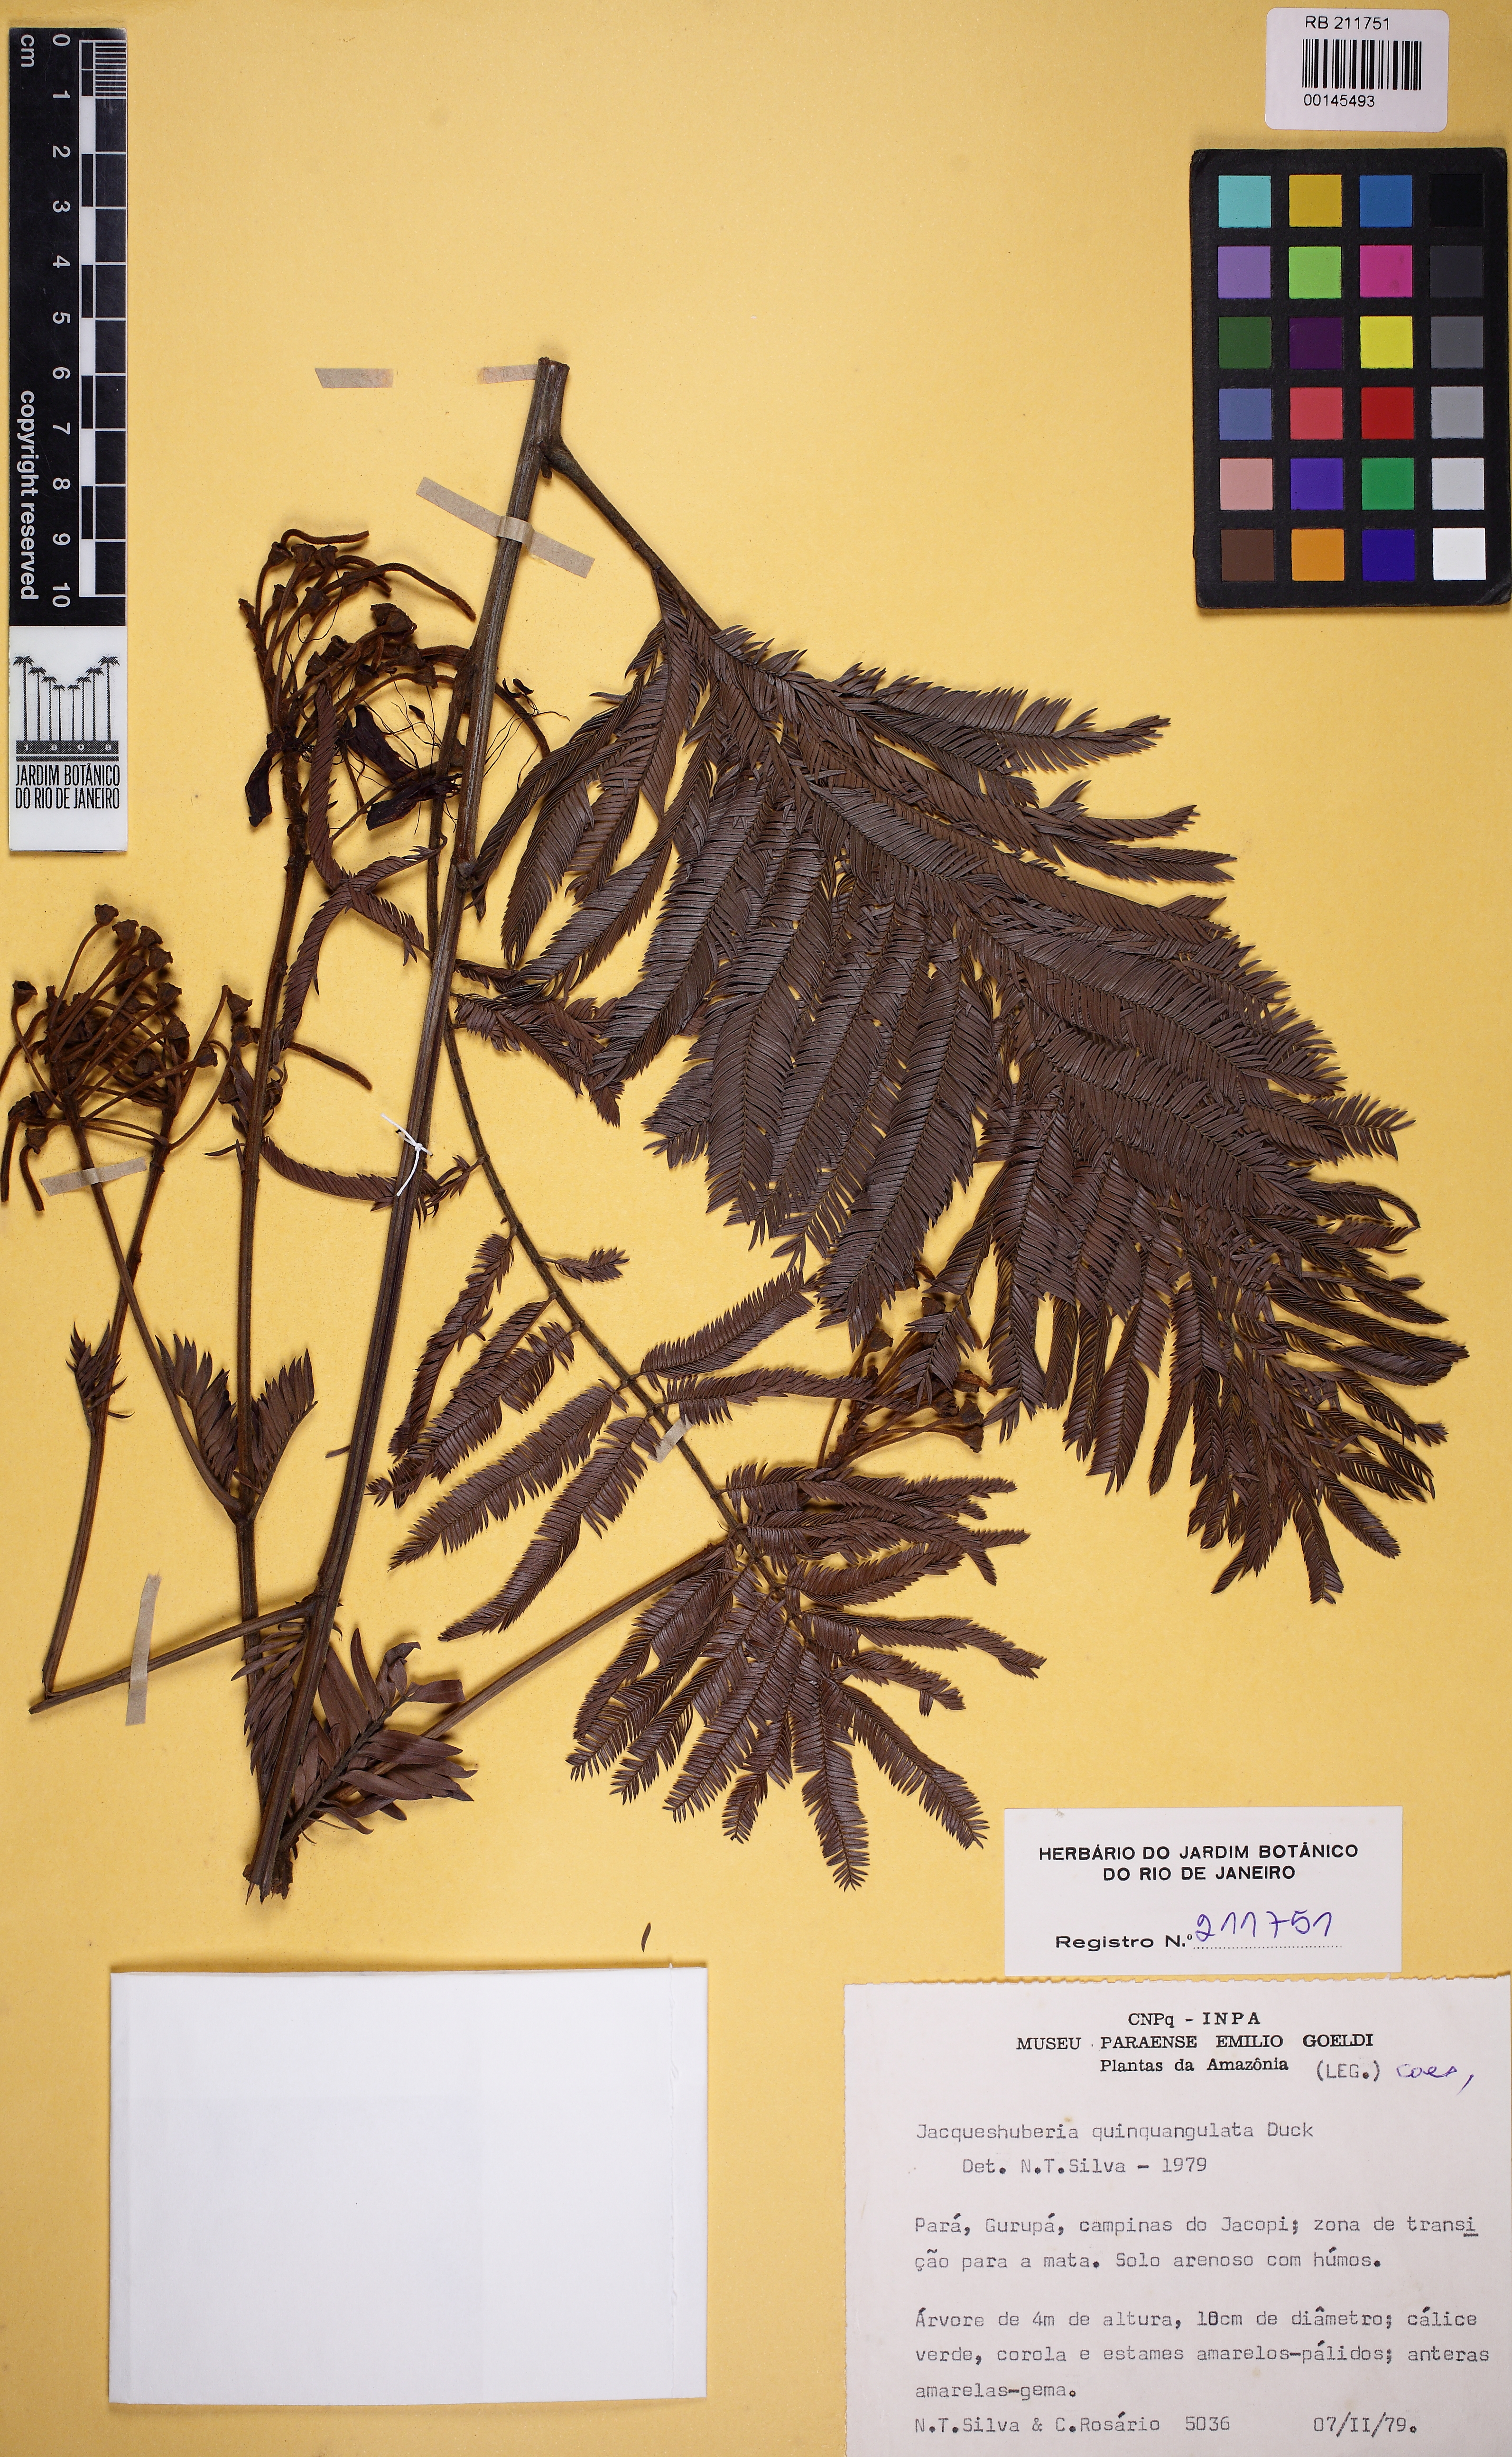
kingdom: Plantae
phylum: Tracheophyta
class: Magnoliopsida
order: Fabales
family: Fabaceae
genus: Jacqueshuberia
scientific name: Jacqueshuberia quinquangulata
